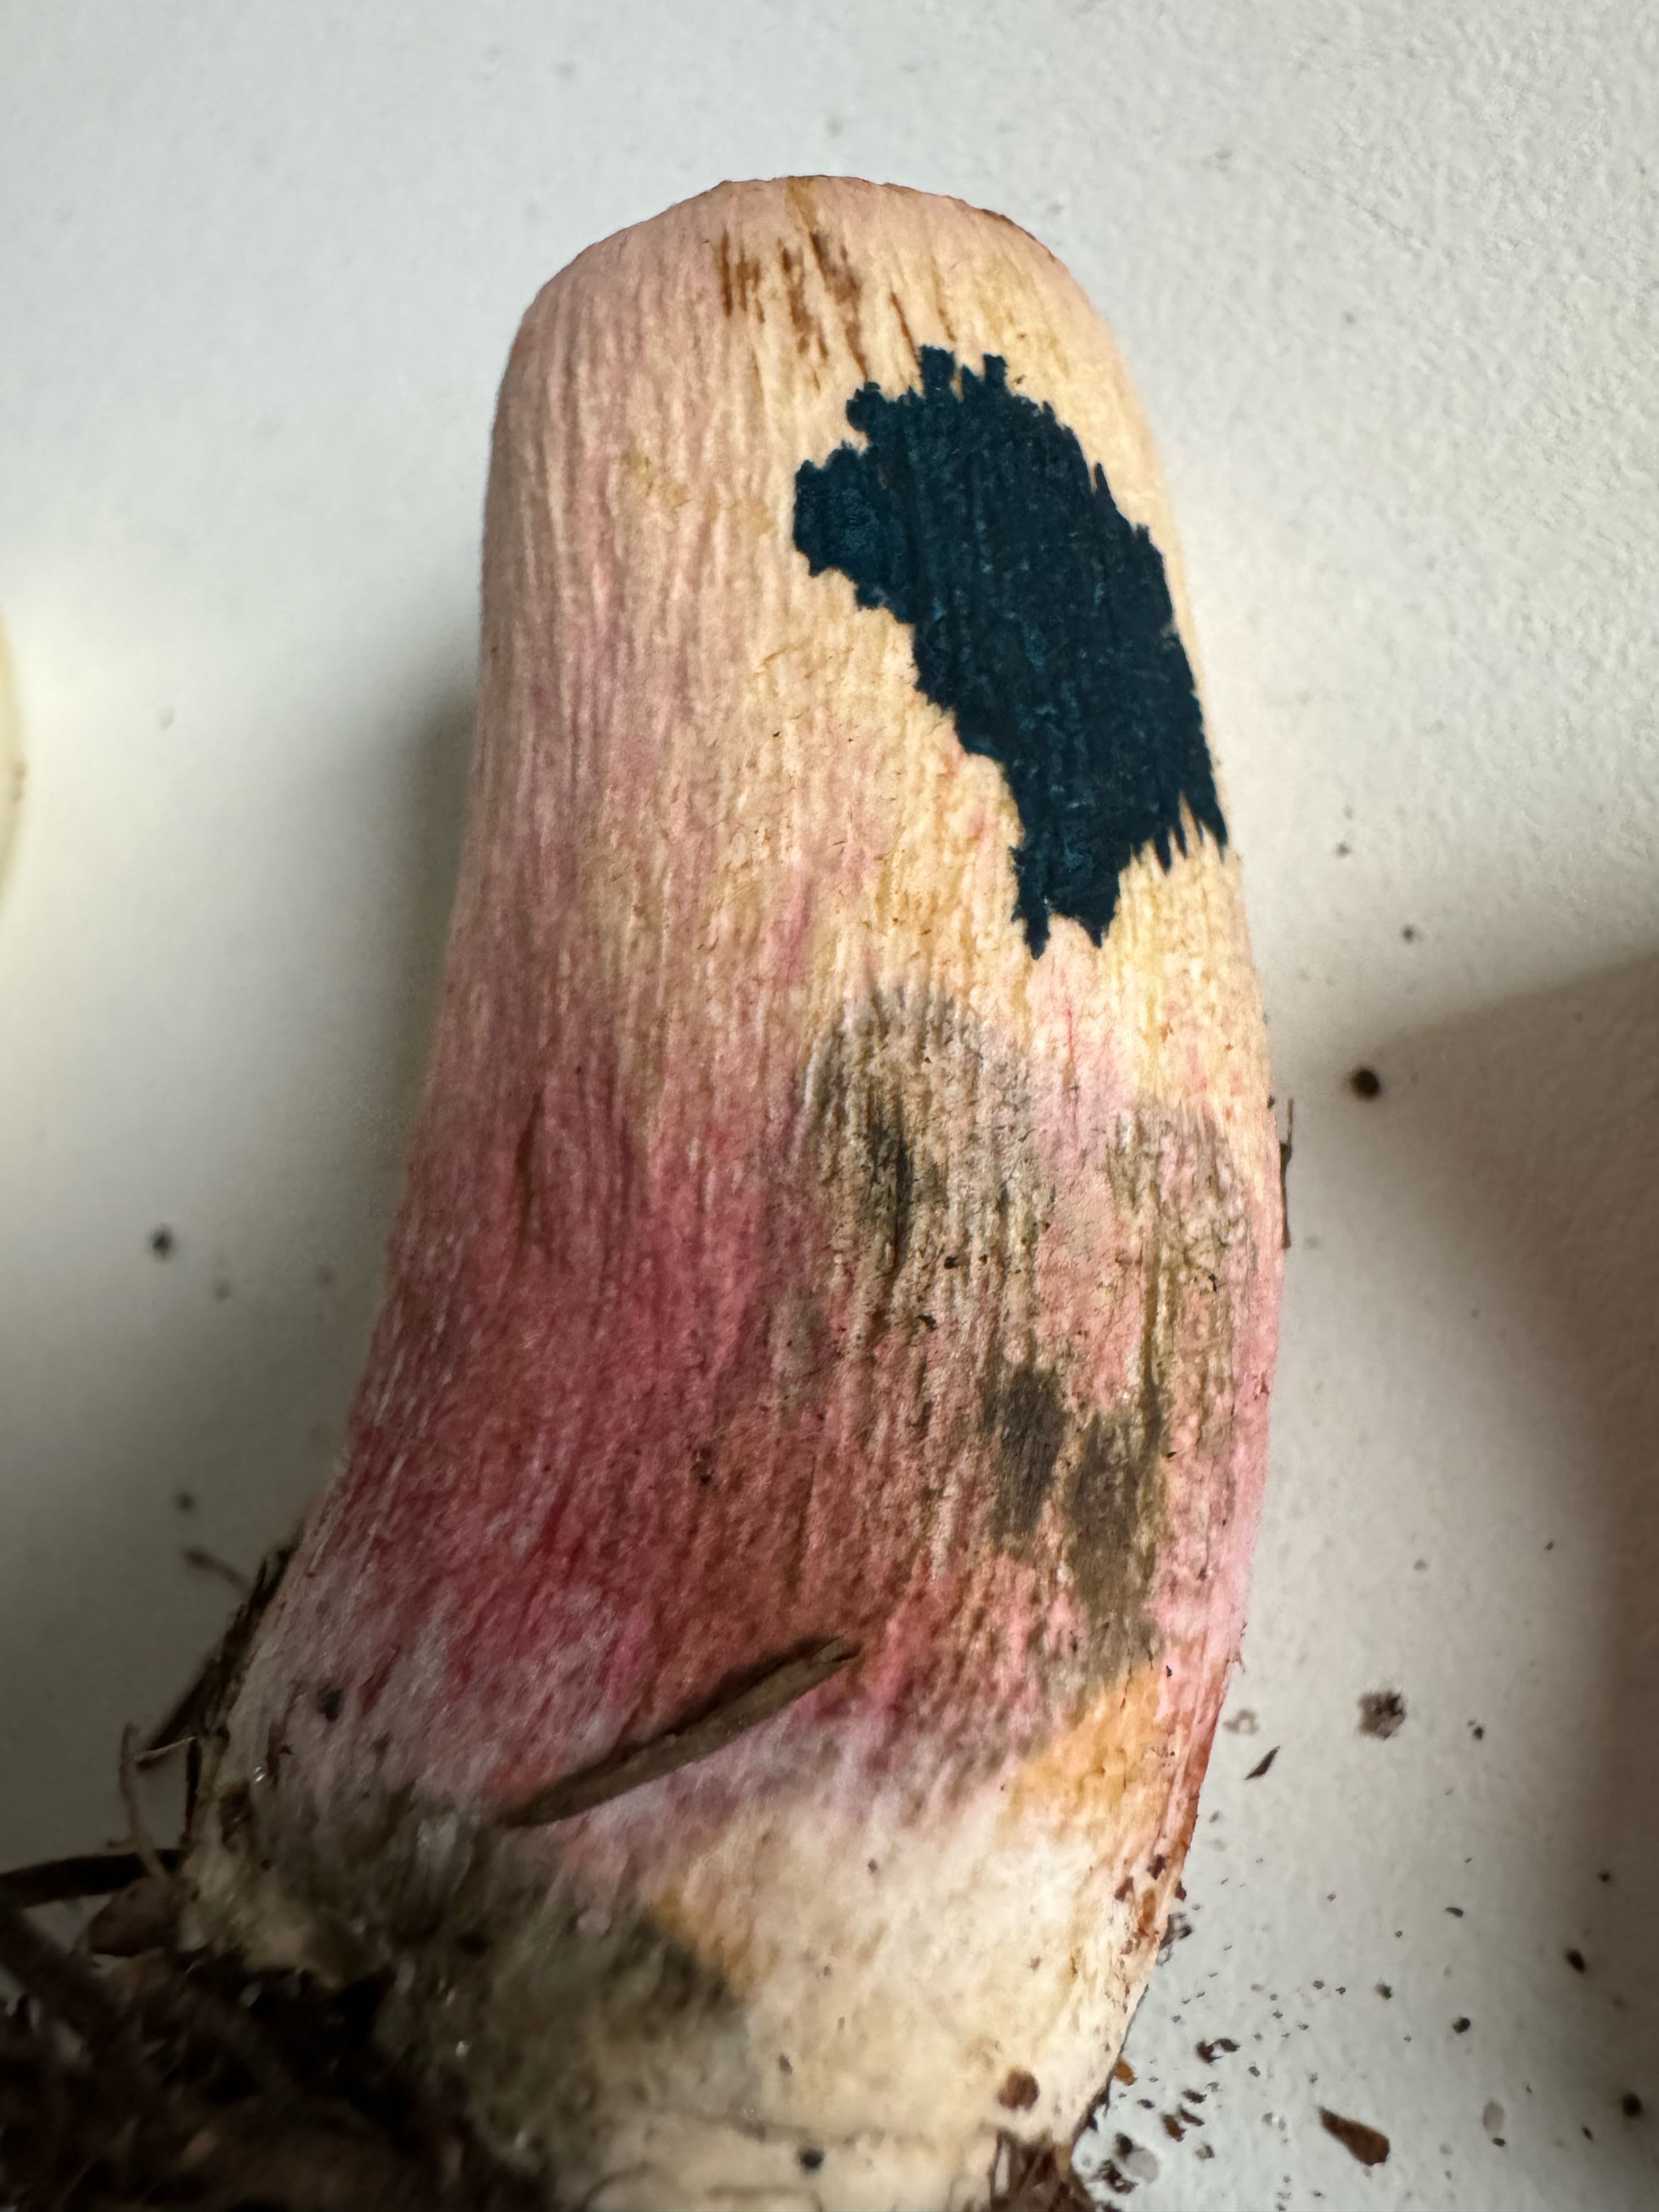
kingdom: Fungi
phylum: Basidiomycota
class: Agaricomycetes
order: Russulales
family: Russulaceae
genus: Russula
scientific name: Russula xerampelina
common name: hummer-skørhat
